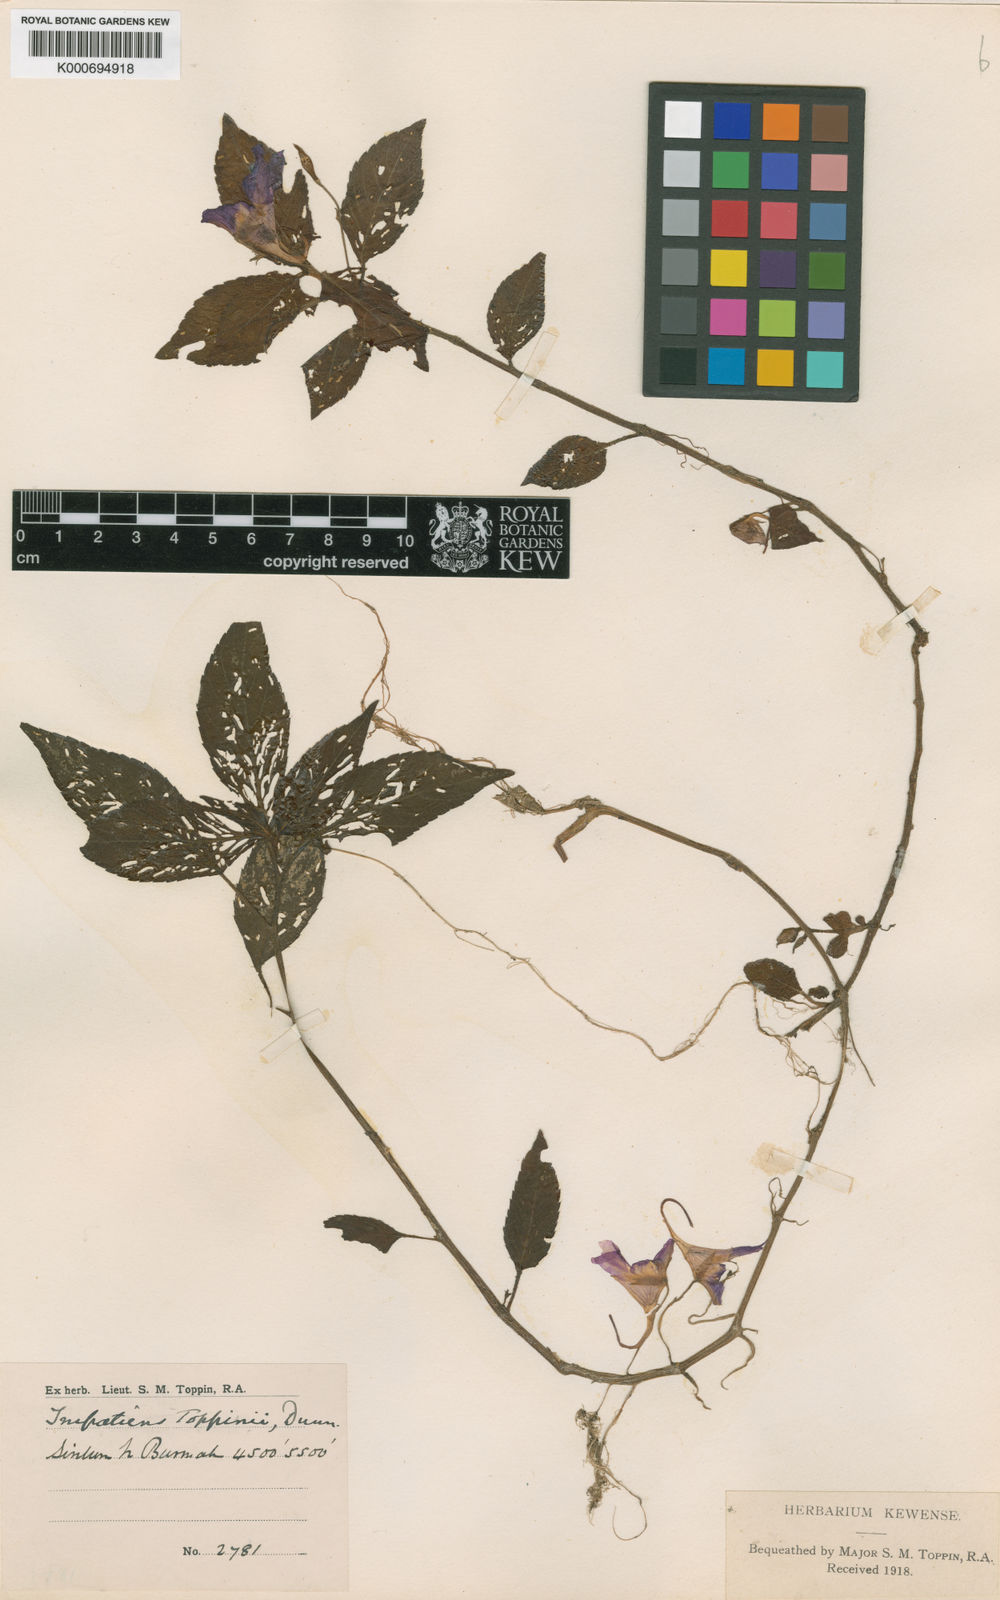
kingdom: Plantae
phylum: Tracheophyta
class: Magnoliopsida
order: Ericales
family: Balsaminaceae
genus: Impatiens
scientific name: Impatiens toppinii
